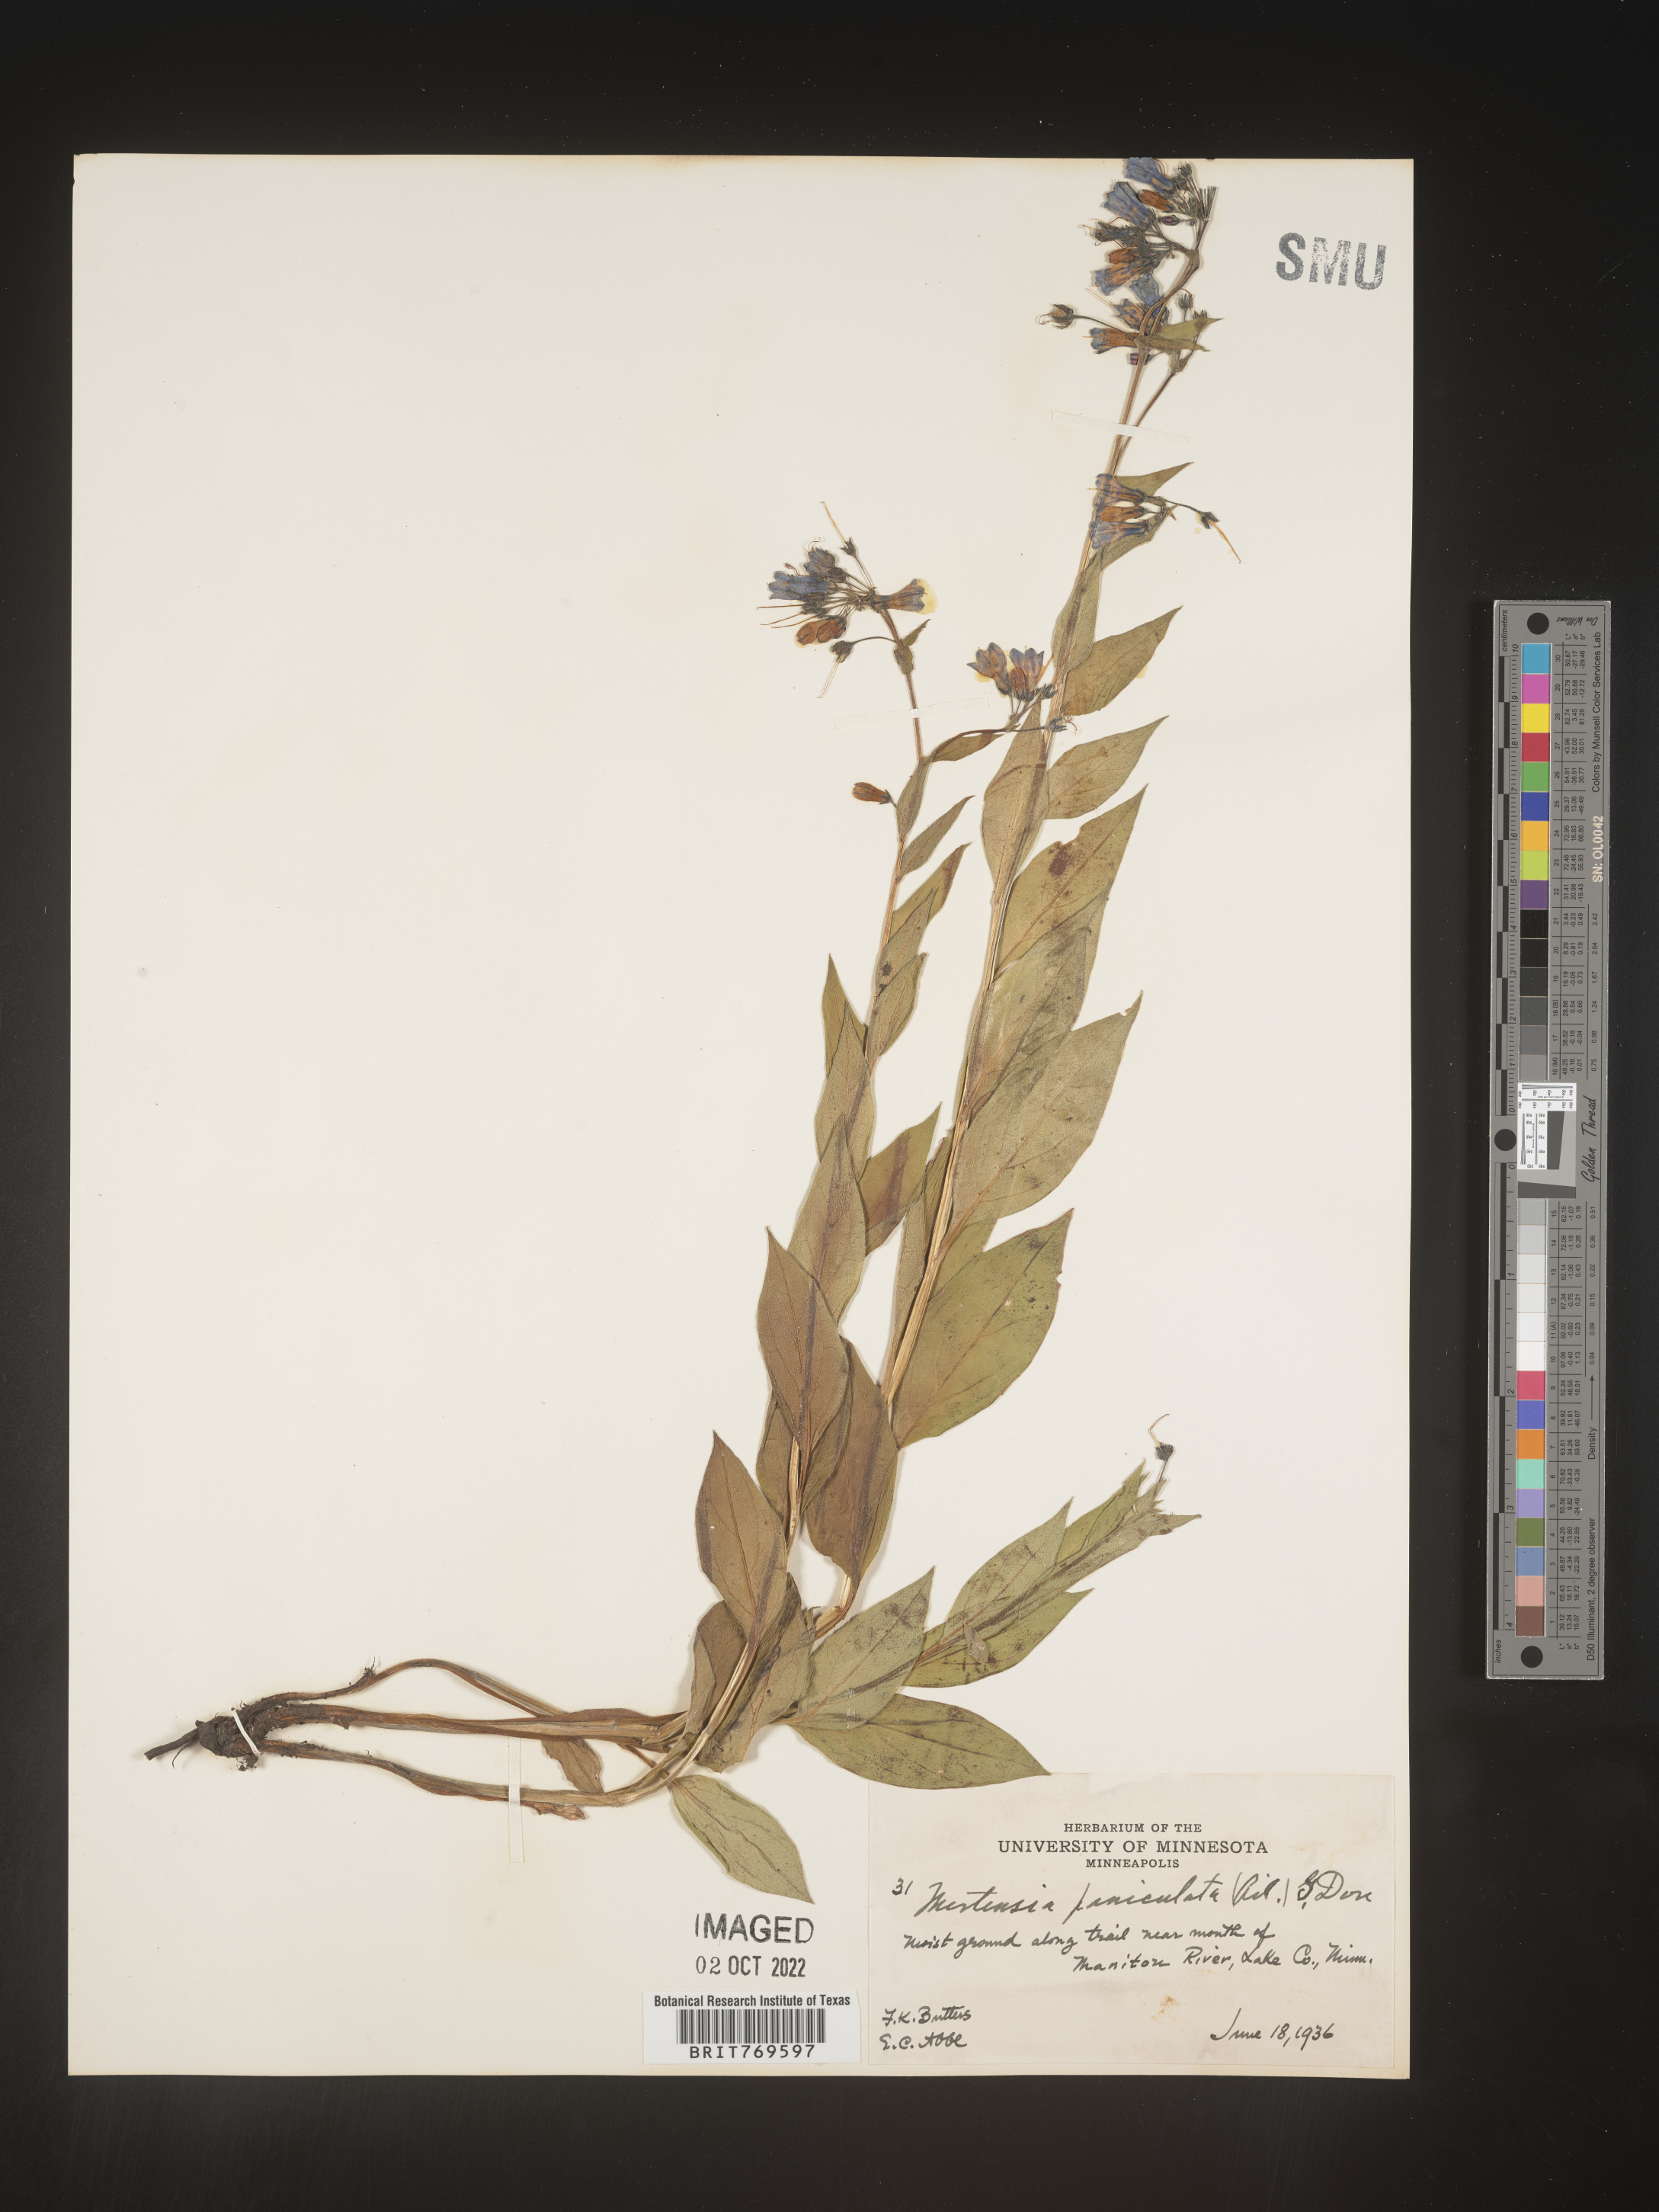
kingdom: Plantae
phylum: Tracheophyta
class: Magnoliopsida
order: Boraginales
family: Boraginaceae
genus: Mertensia
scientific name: Mertensia
